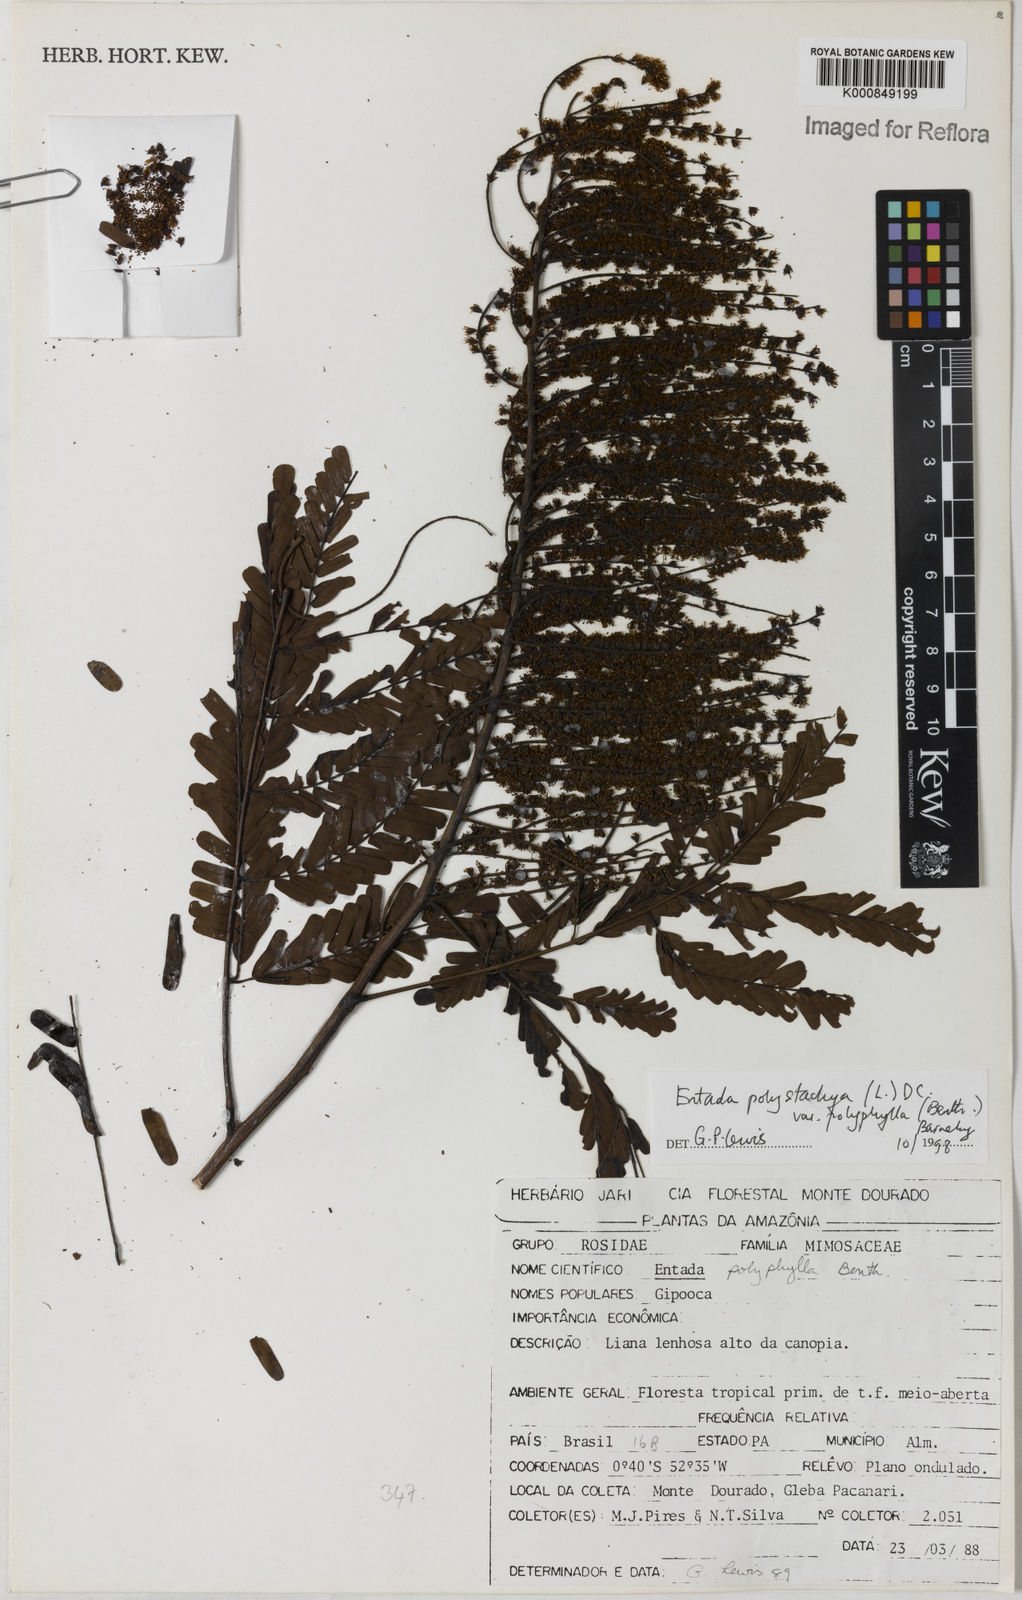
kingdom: Plantae
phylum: Tracheophyta
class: Magnoliopsida
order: Fabales
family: Fabaceae
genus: Entada
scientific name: Entada polyphylla
